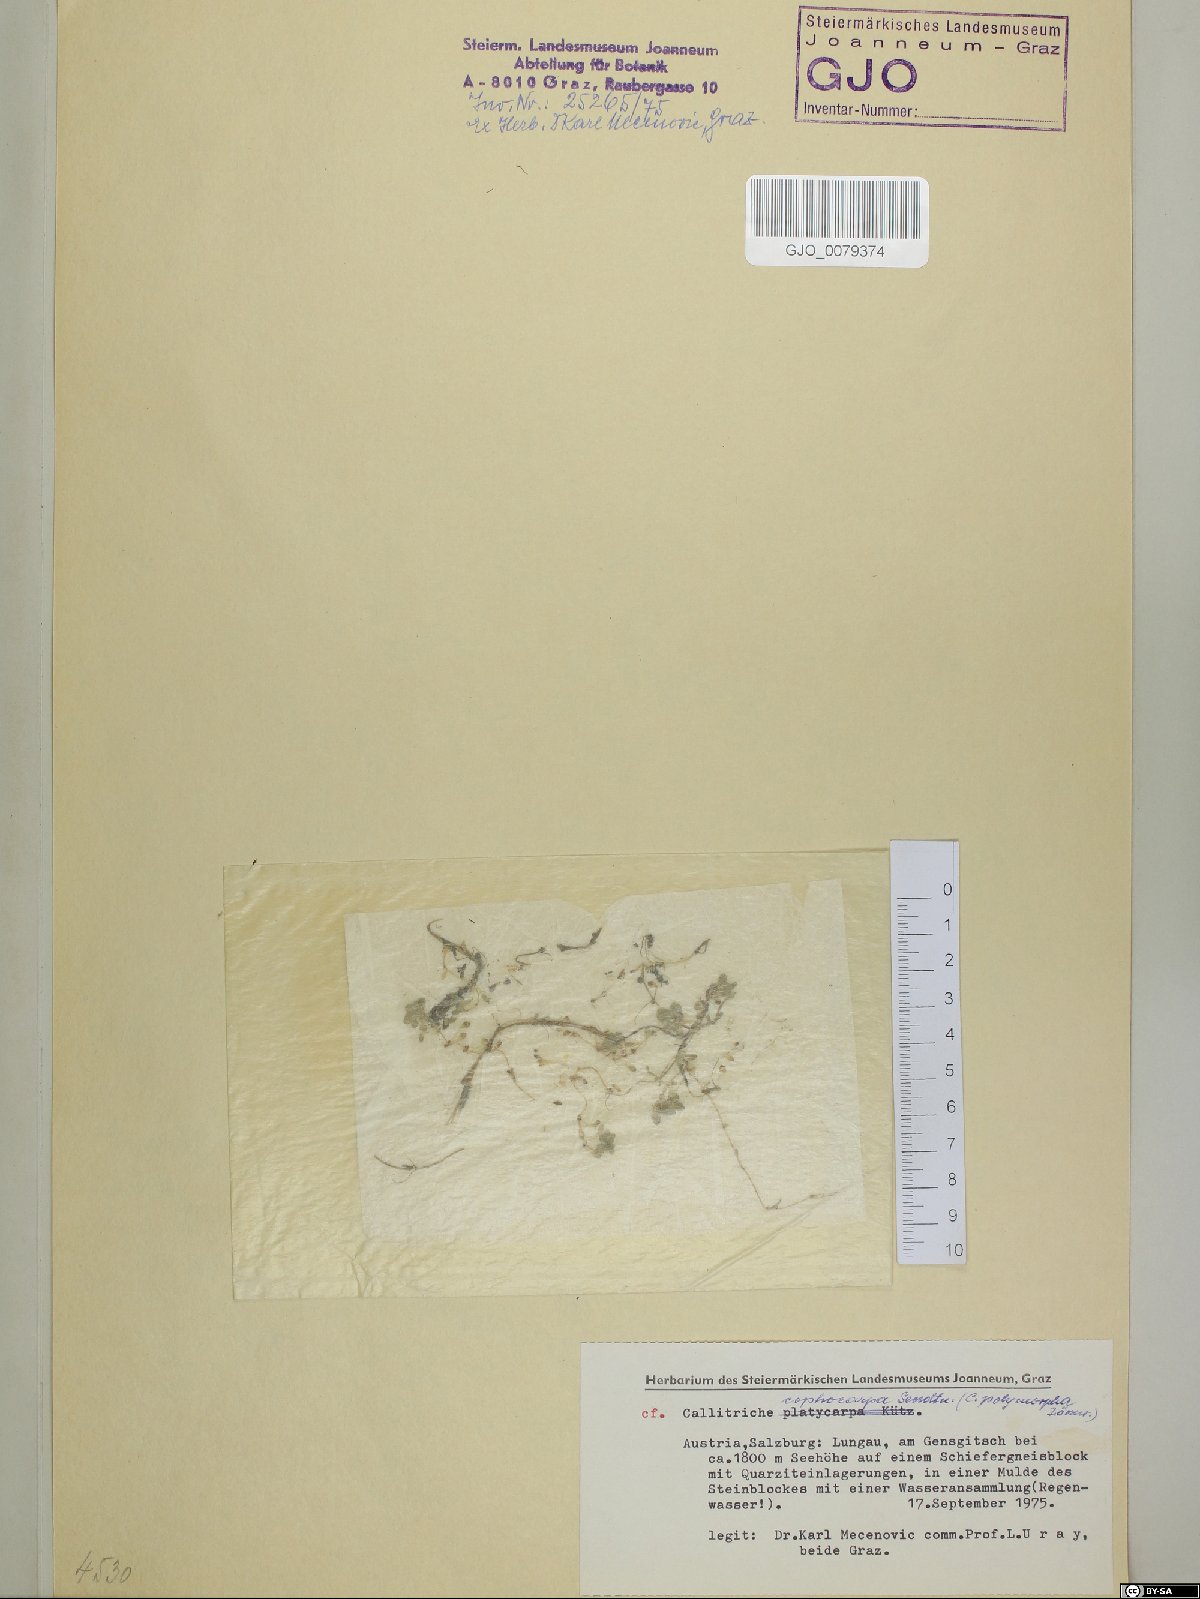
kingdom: Plantae
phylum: Tracheophyta
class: Magnoliopsida
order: Lamiales
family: Plantaginaceae
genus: Callitriche
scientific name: Callitriche cophocarpa
